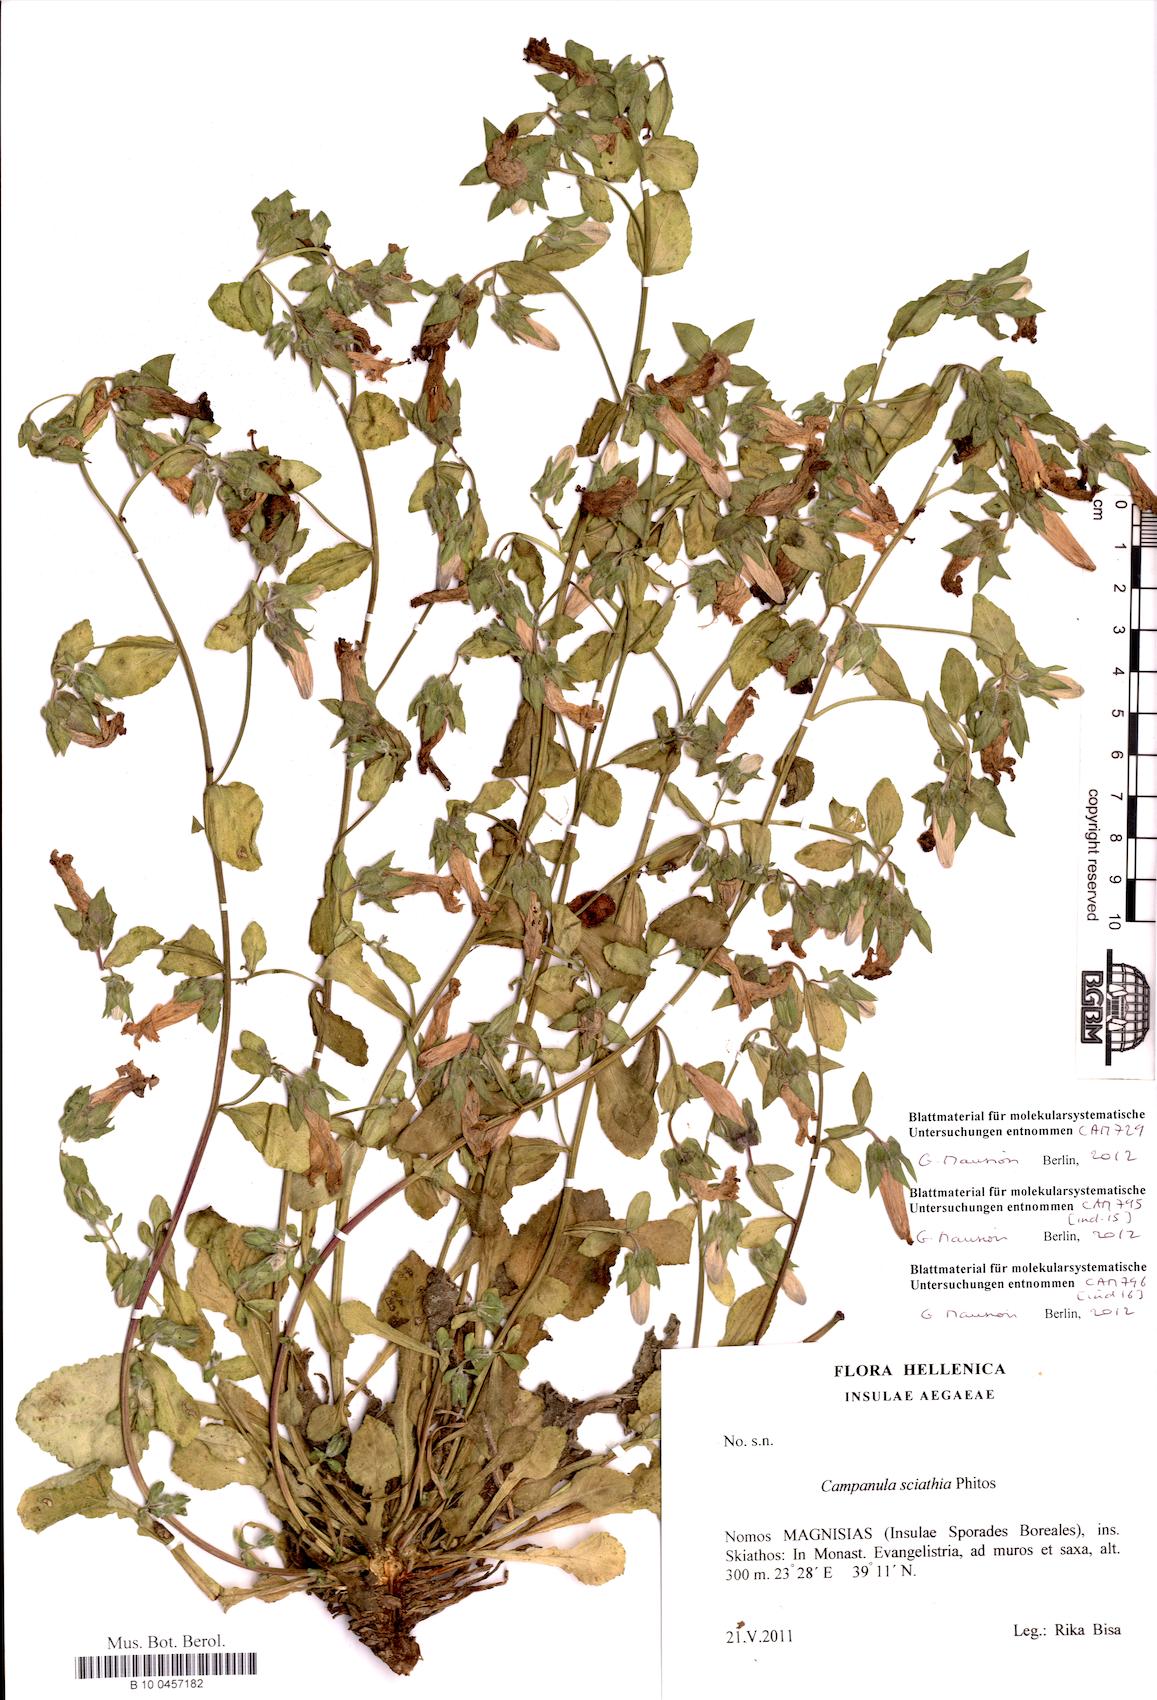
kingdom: Plantae
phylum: Tracheophyta
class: Magnoliopsida
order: Asterales
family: Campanulaceae
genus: Campanula
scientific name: Campanula sciathia
